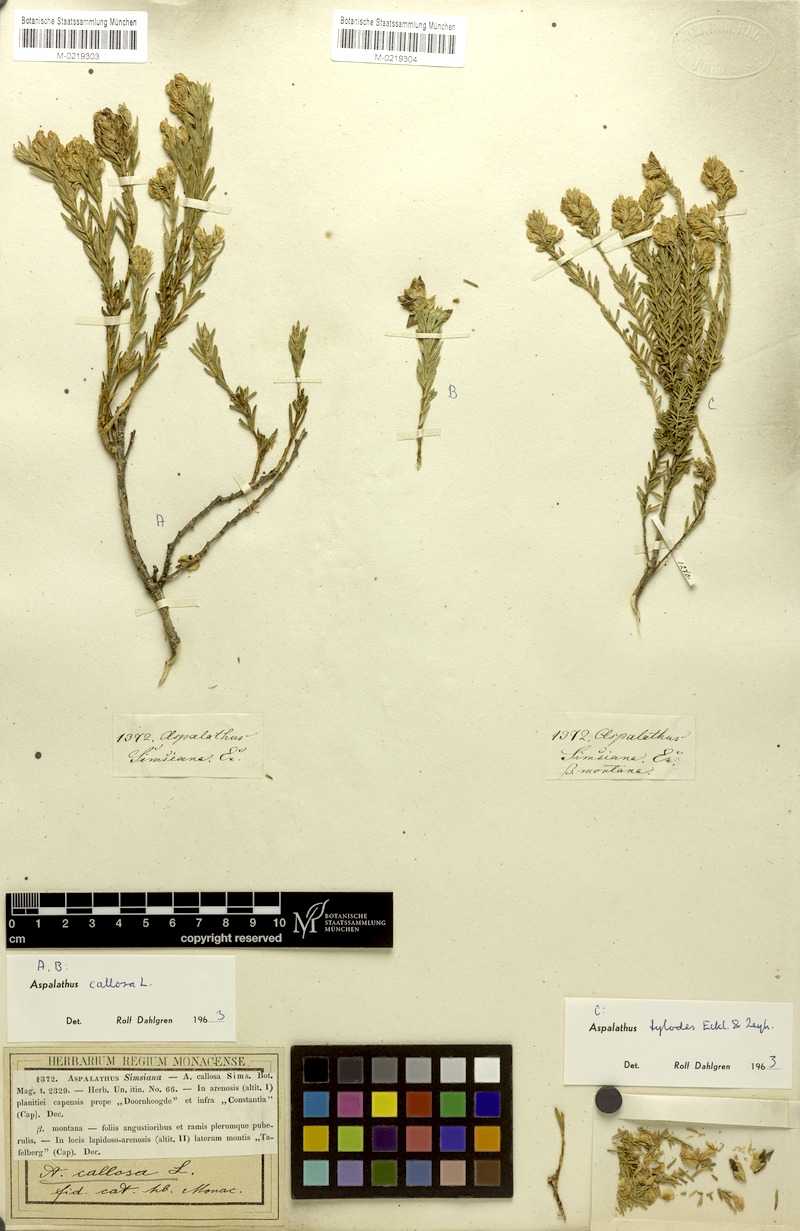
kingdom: Plantae
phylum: Tracheophyta
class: Magnoliopsida
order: Fabales
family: Fabaceae
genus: Aspalathus
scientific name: Aspalathus tylodes
